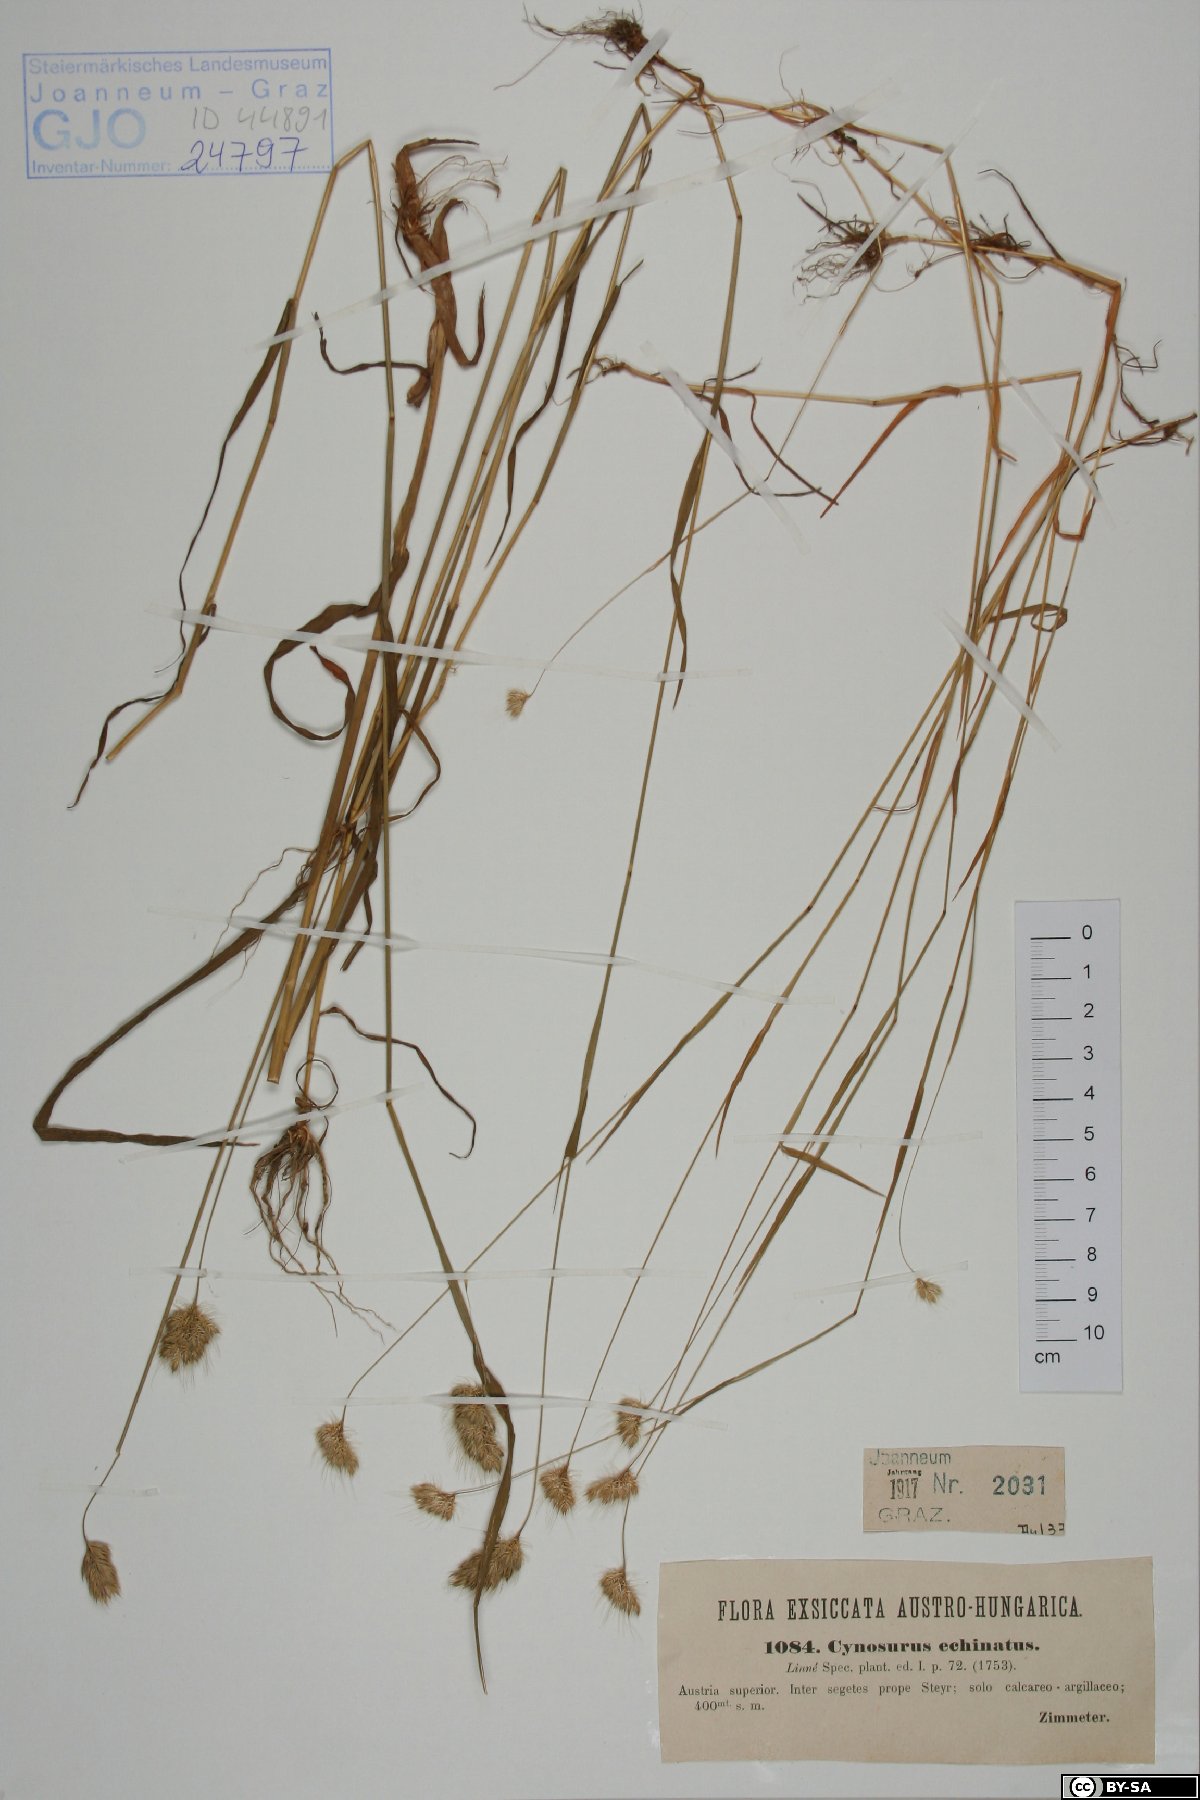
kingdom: Plantae
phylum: Tracheophyta
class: Liliopsida
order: Poales
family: Poaceae
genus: Cynosurus
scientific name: Cynosurus echinatus
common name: Rough dog's-tail
